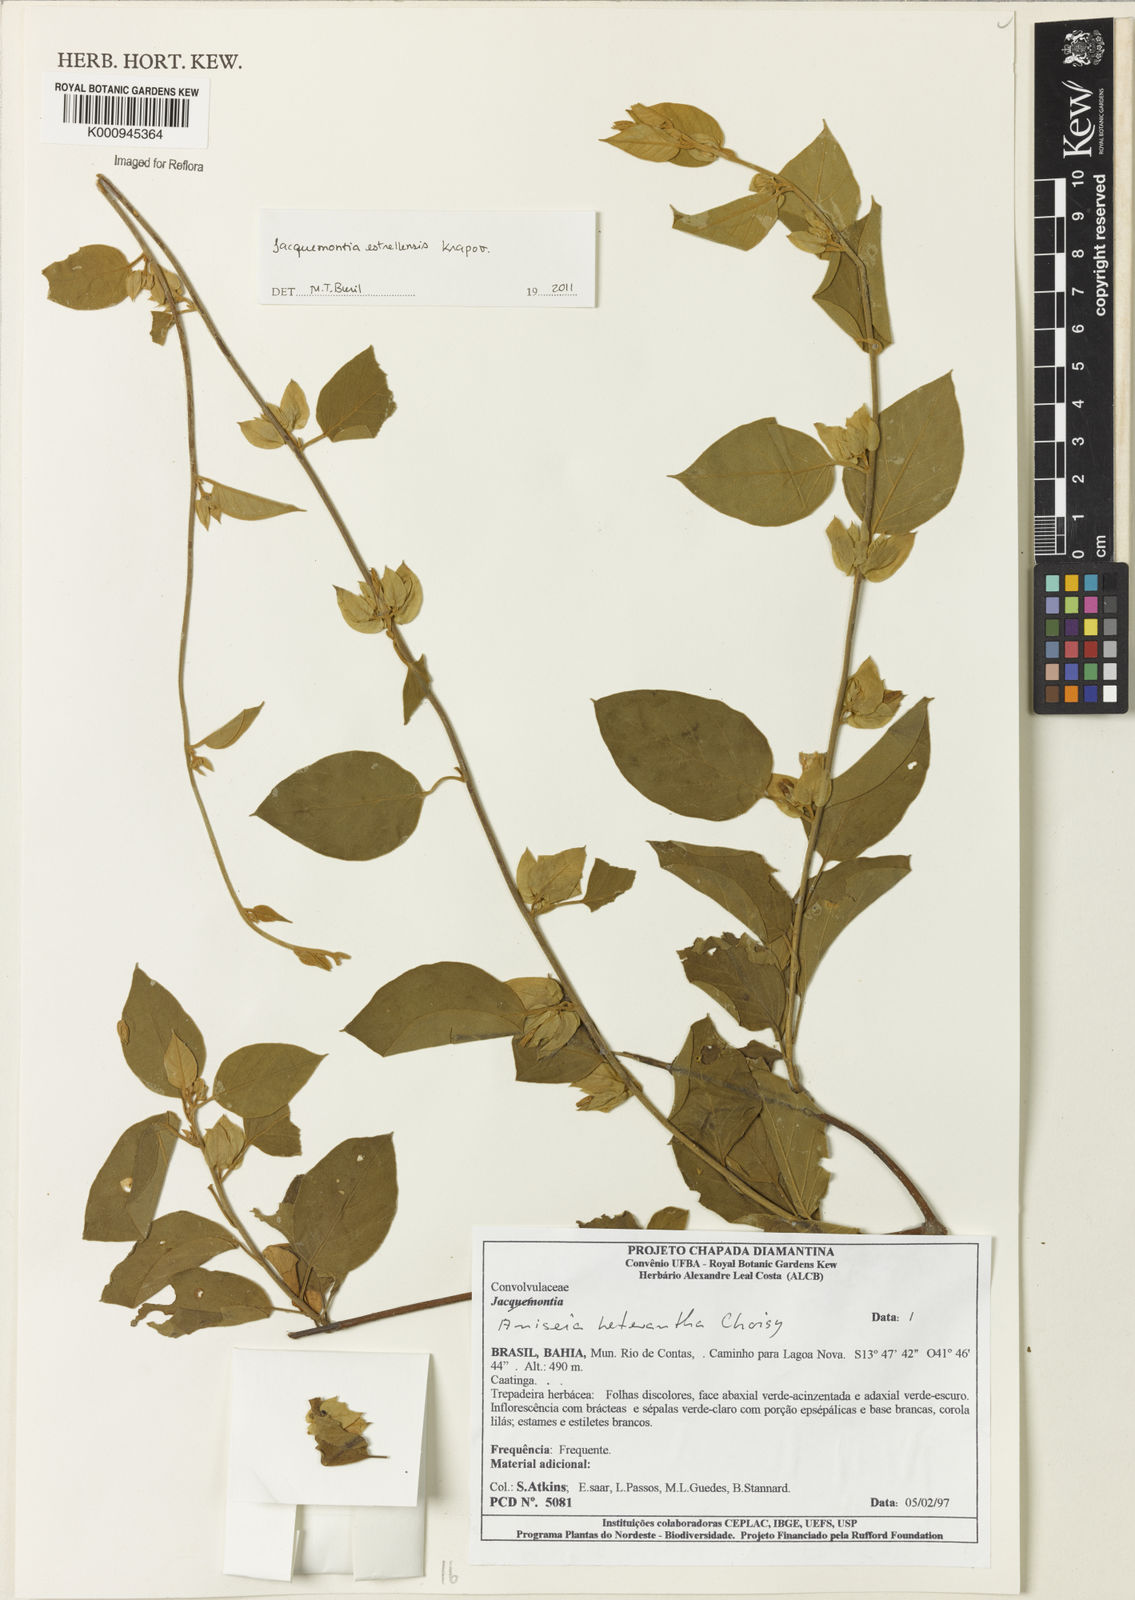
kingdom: Plantae
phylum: Tracheophyta
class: Magnoliopsida
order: Solanales
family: Convolvulaceae
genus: Jacquemontia
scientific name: Jacquemontia
